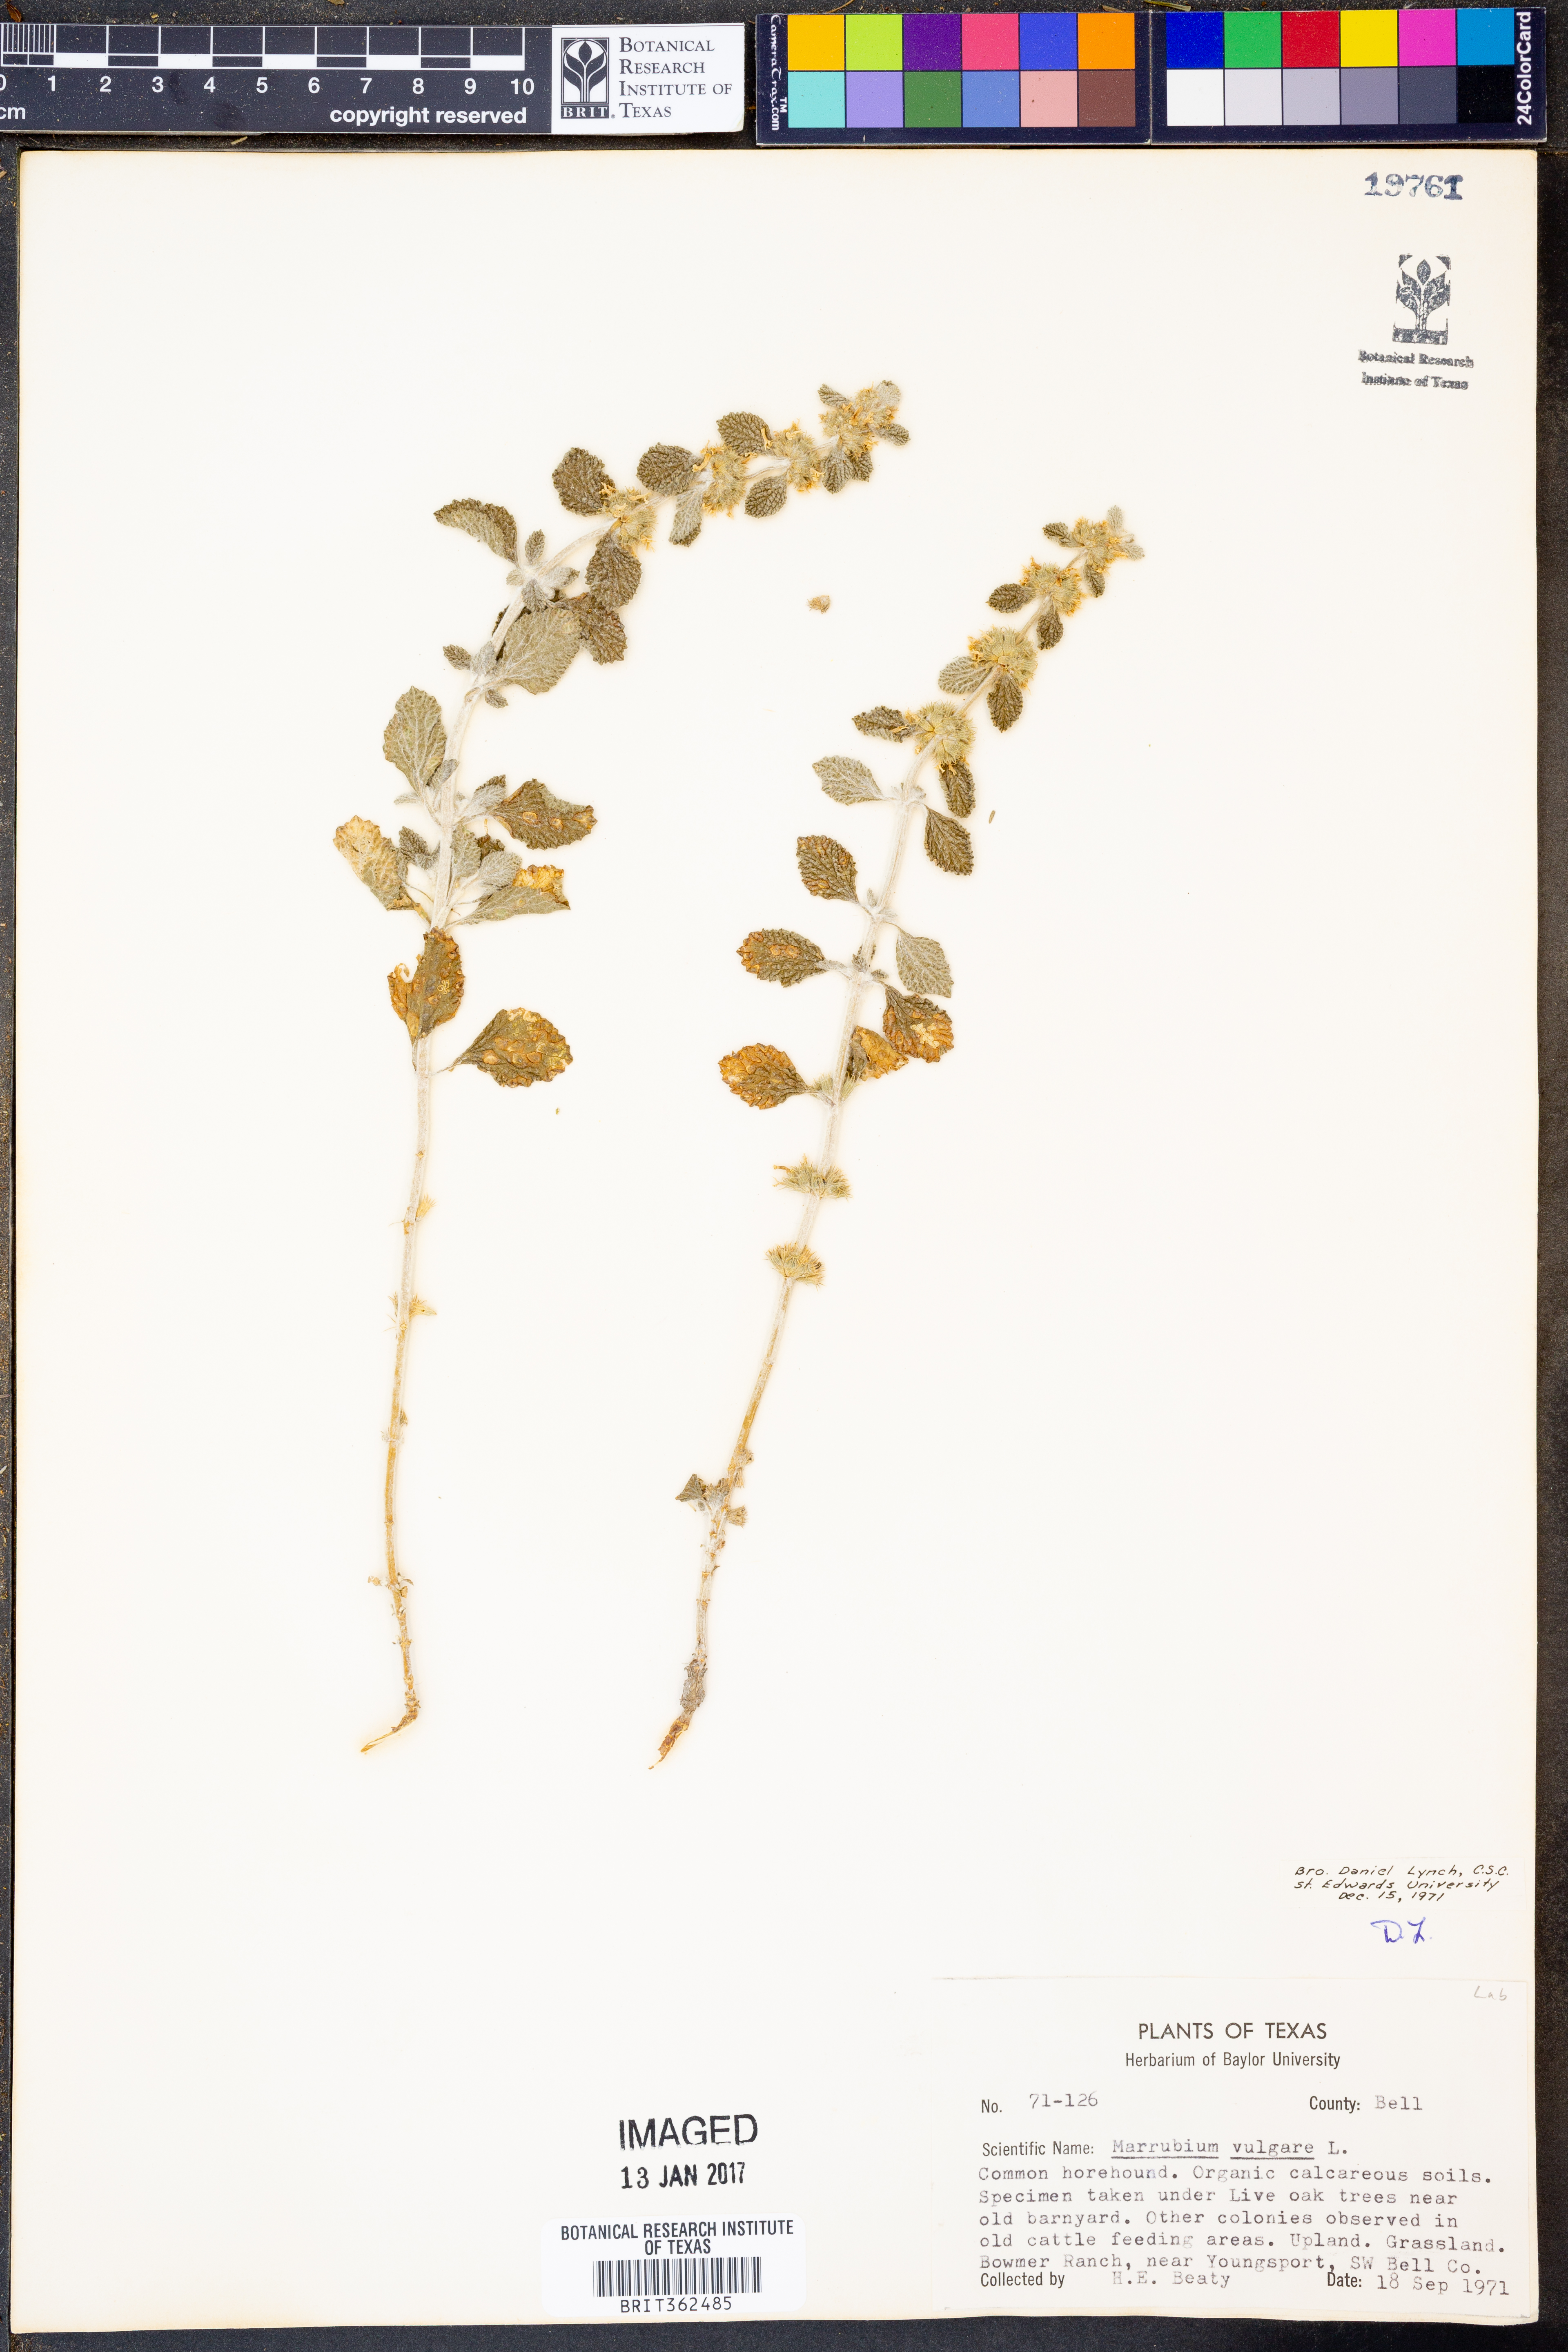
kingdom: Plantae
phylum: Tracheophyta
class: Magnoliopsida
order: Lamiales
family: Lamiaceae
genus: Marrubium
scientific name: Marrubium vulgare
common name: Horehound
